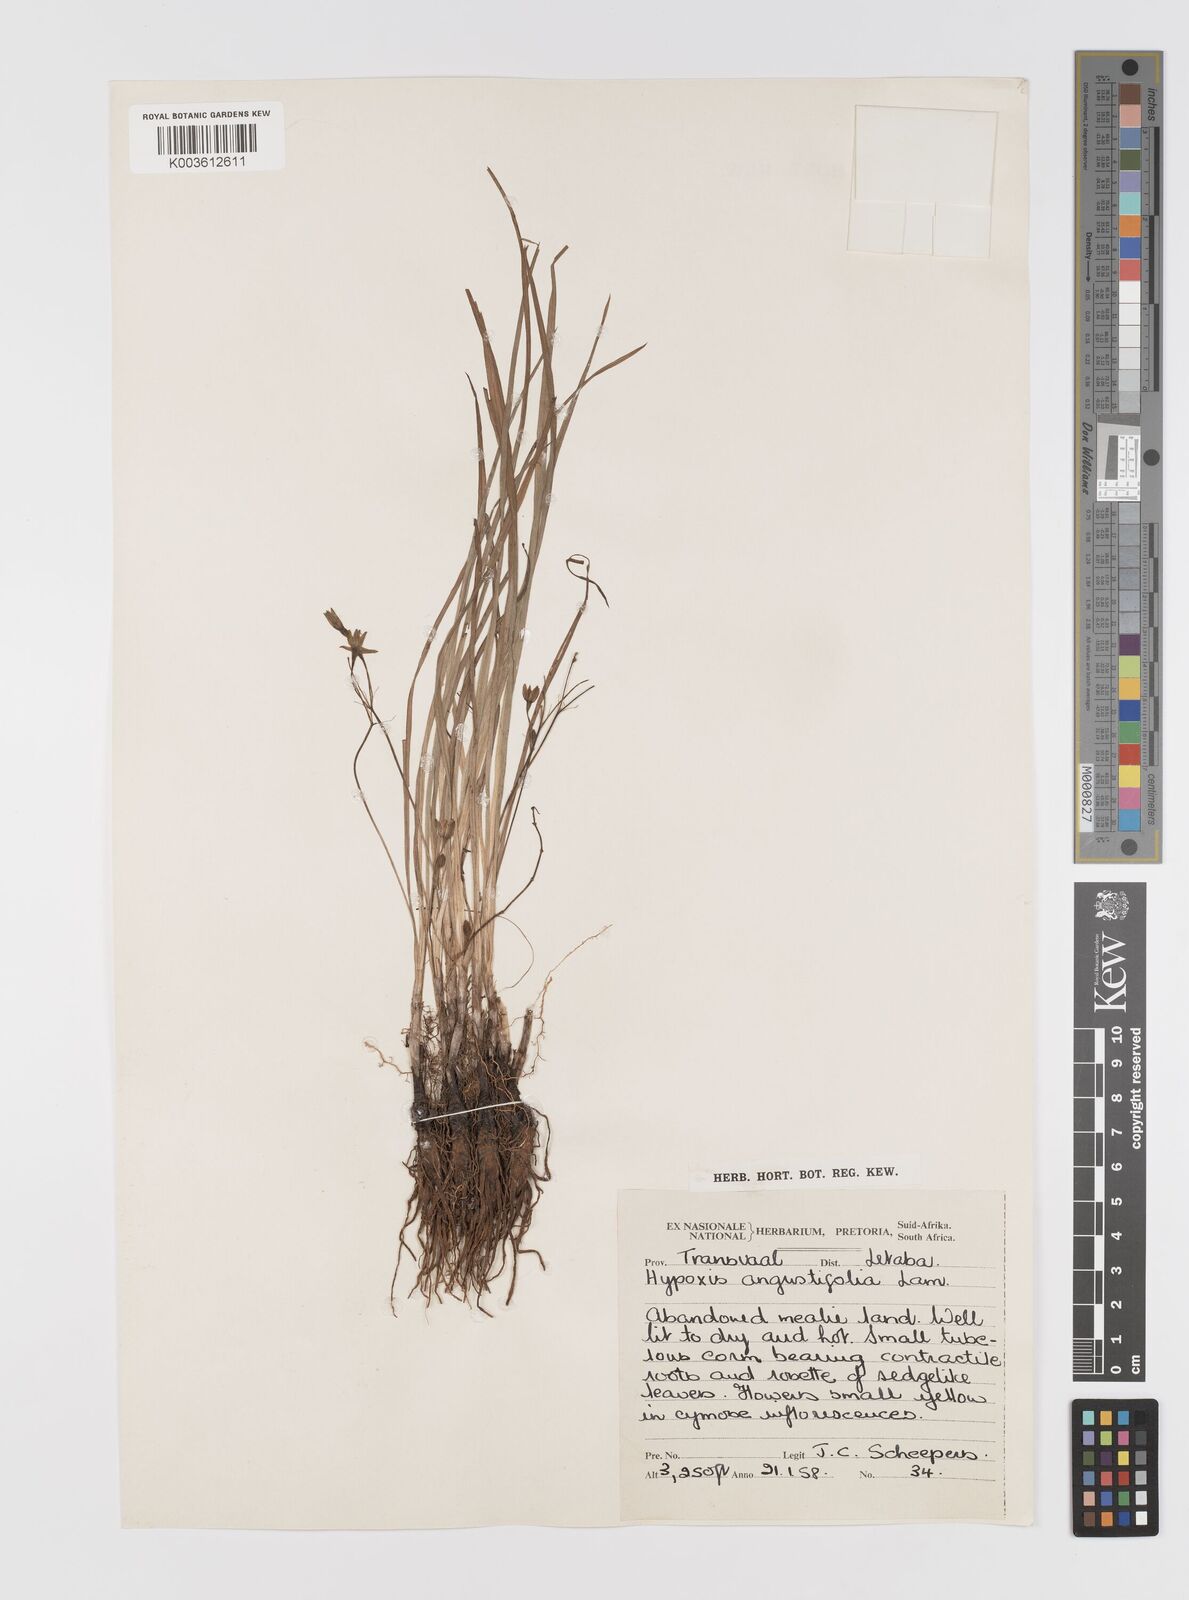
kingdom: Plantae
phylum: Tracheophyta
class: Liliopsida
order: Asparagales
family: Hypoxidaceae
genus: Hypoxis
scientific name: Hypoxis angustifolia
